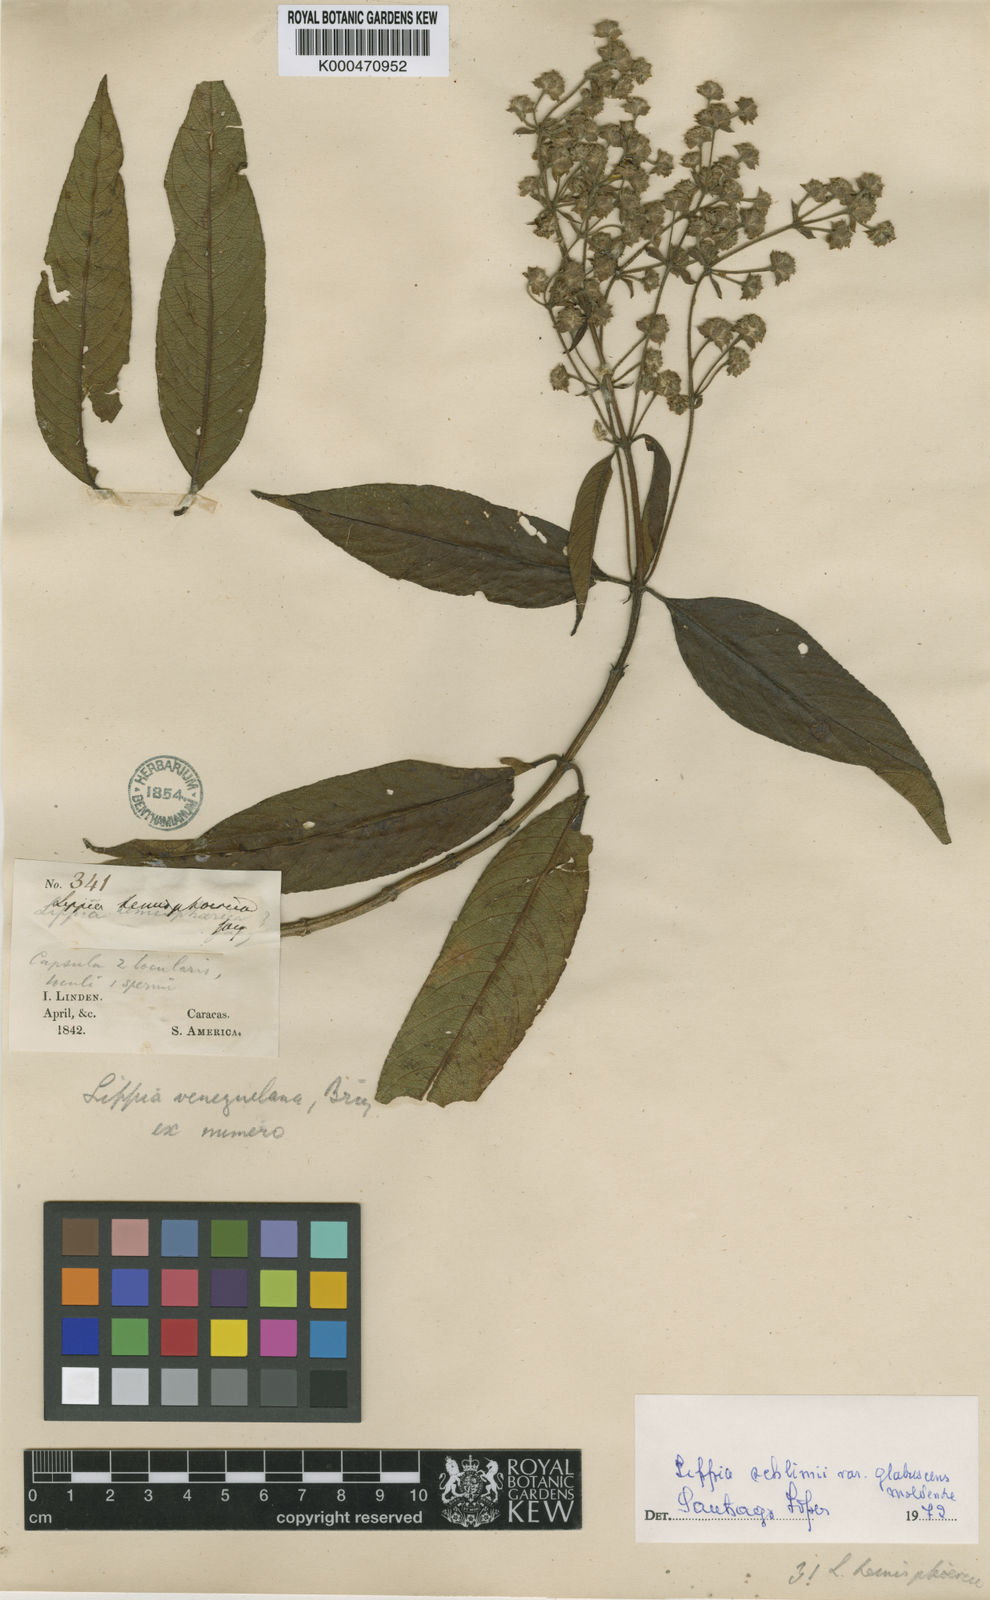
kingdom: Plantae
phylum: Tracheophyta
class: Magnoliopsida
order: Lamiales
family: Verbenaceae
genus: Lippia
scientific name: Lippia schlimii
